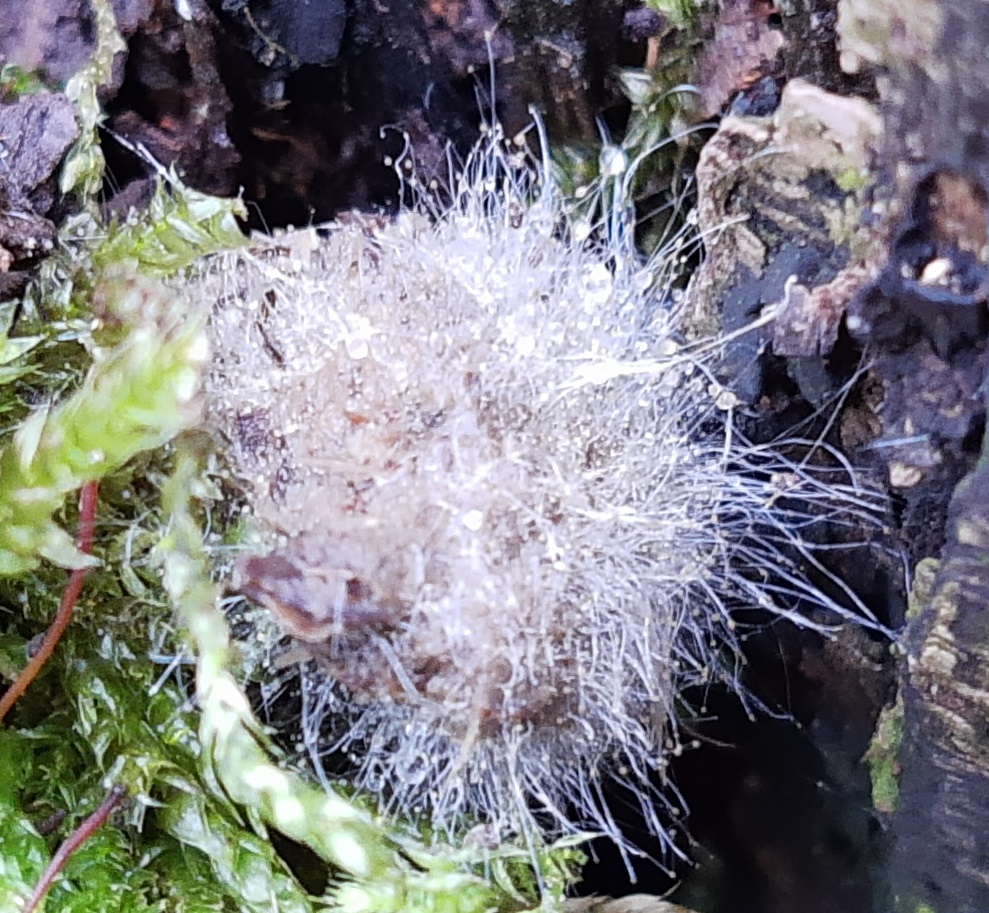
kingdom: Fungi
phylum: Mucoromycota
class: Mucoromycetes
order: Mucorales
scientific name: Mucorales
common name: mugordenen
